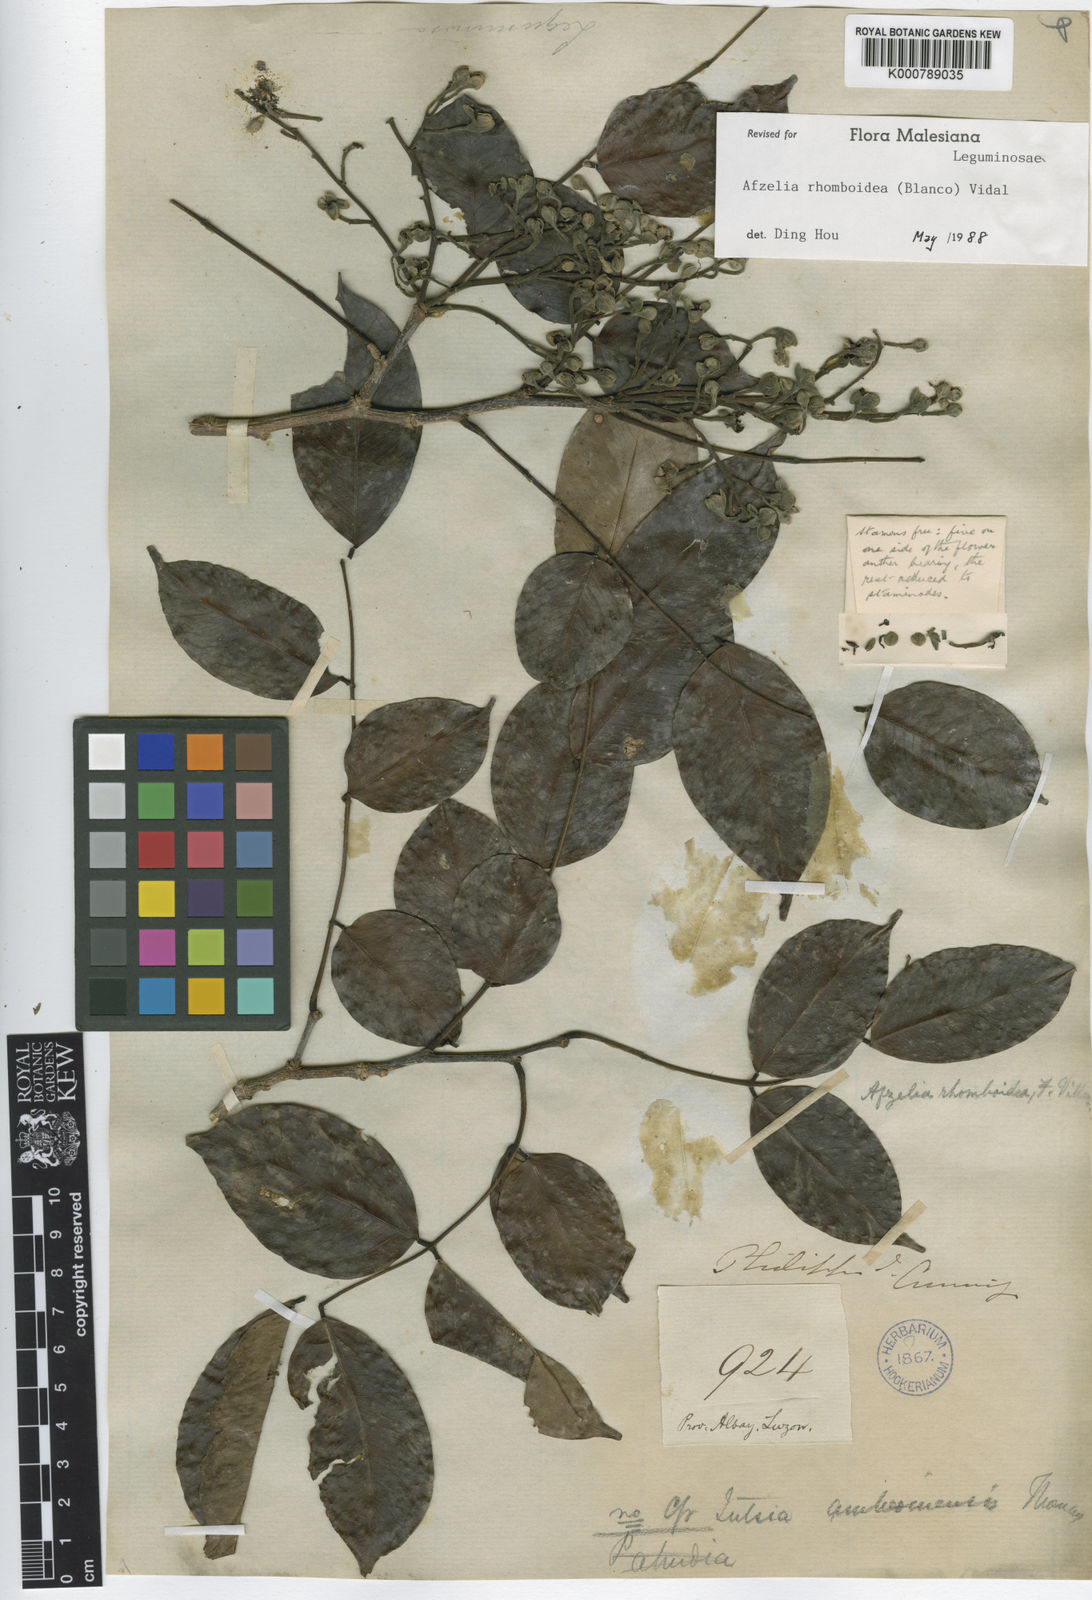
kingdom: Plantae
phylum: Tracheophyta
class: Magnoliopsida
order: Fabales
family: Fabaceae
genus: Afzelia
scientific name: Afzelia
